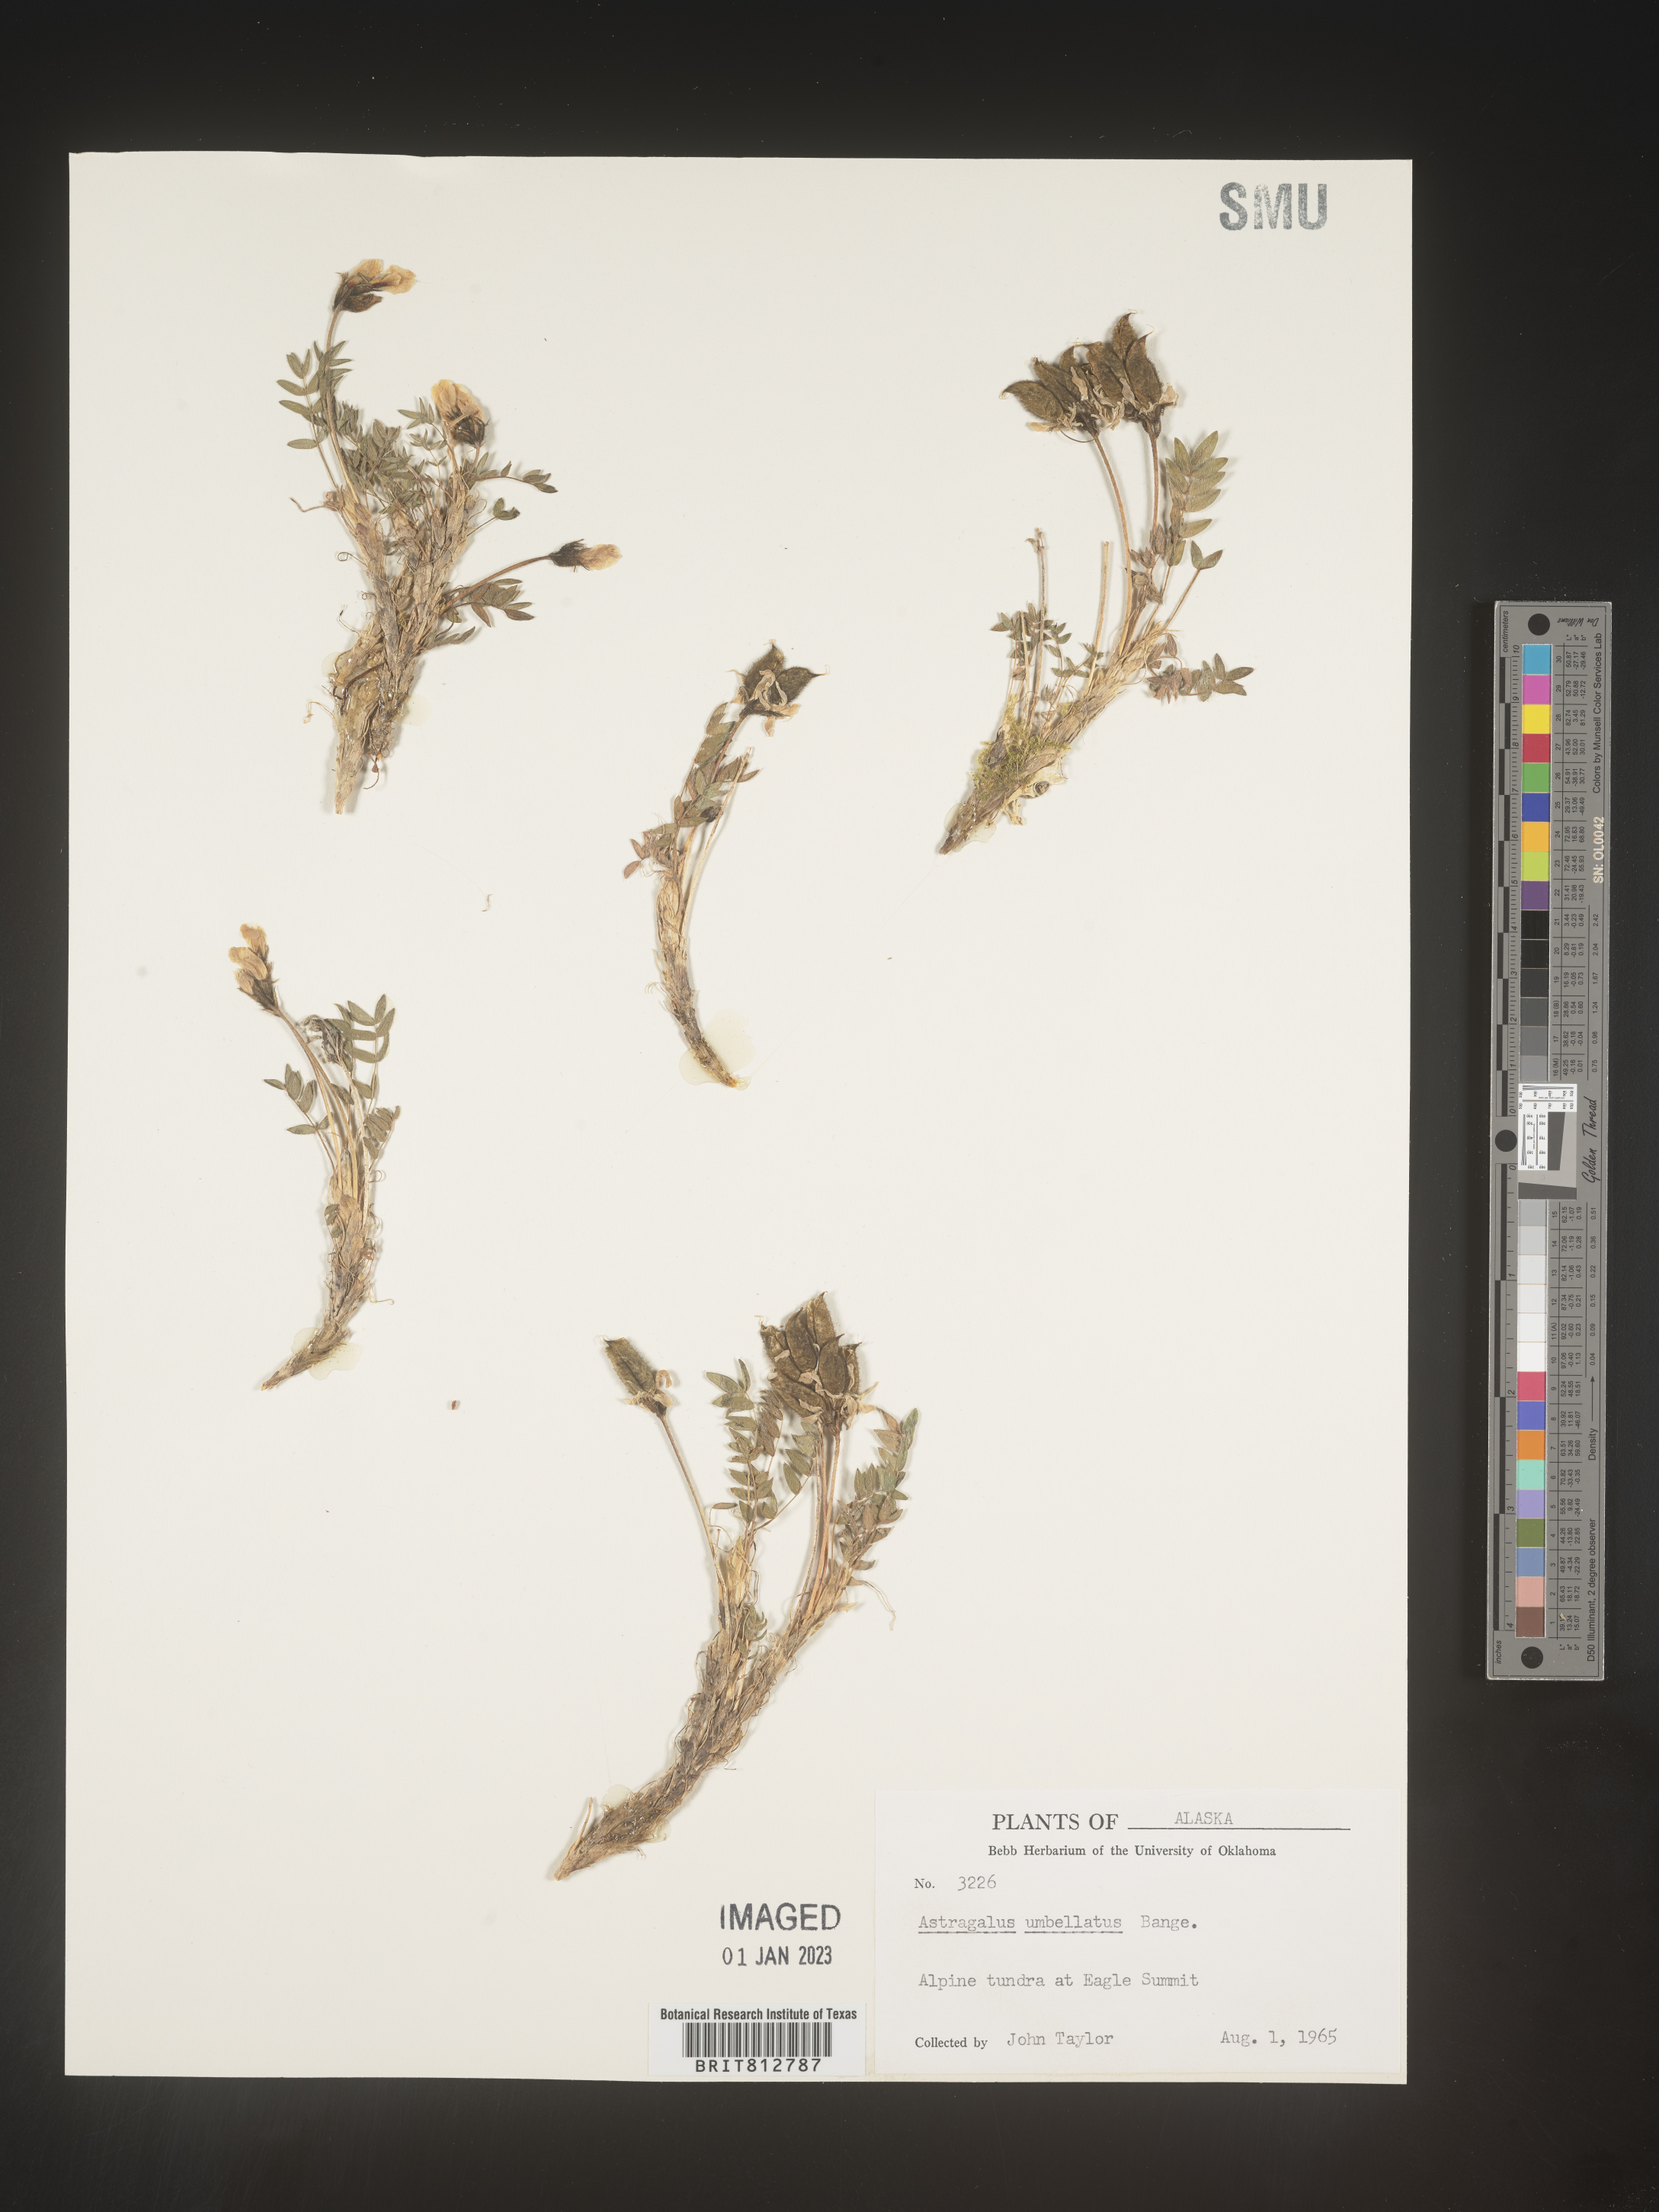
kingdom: Plantae
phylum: Tracheophyta
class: Magnoliopsida
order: Fabales
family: Fabaceae
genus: Astragalus
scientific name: Astragalus
